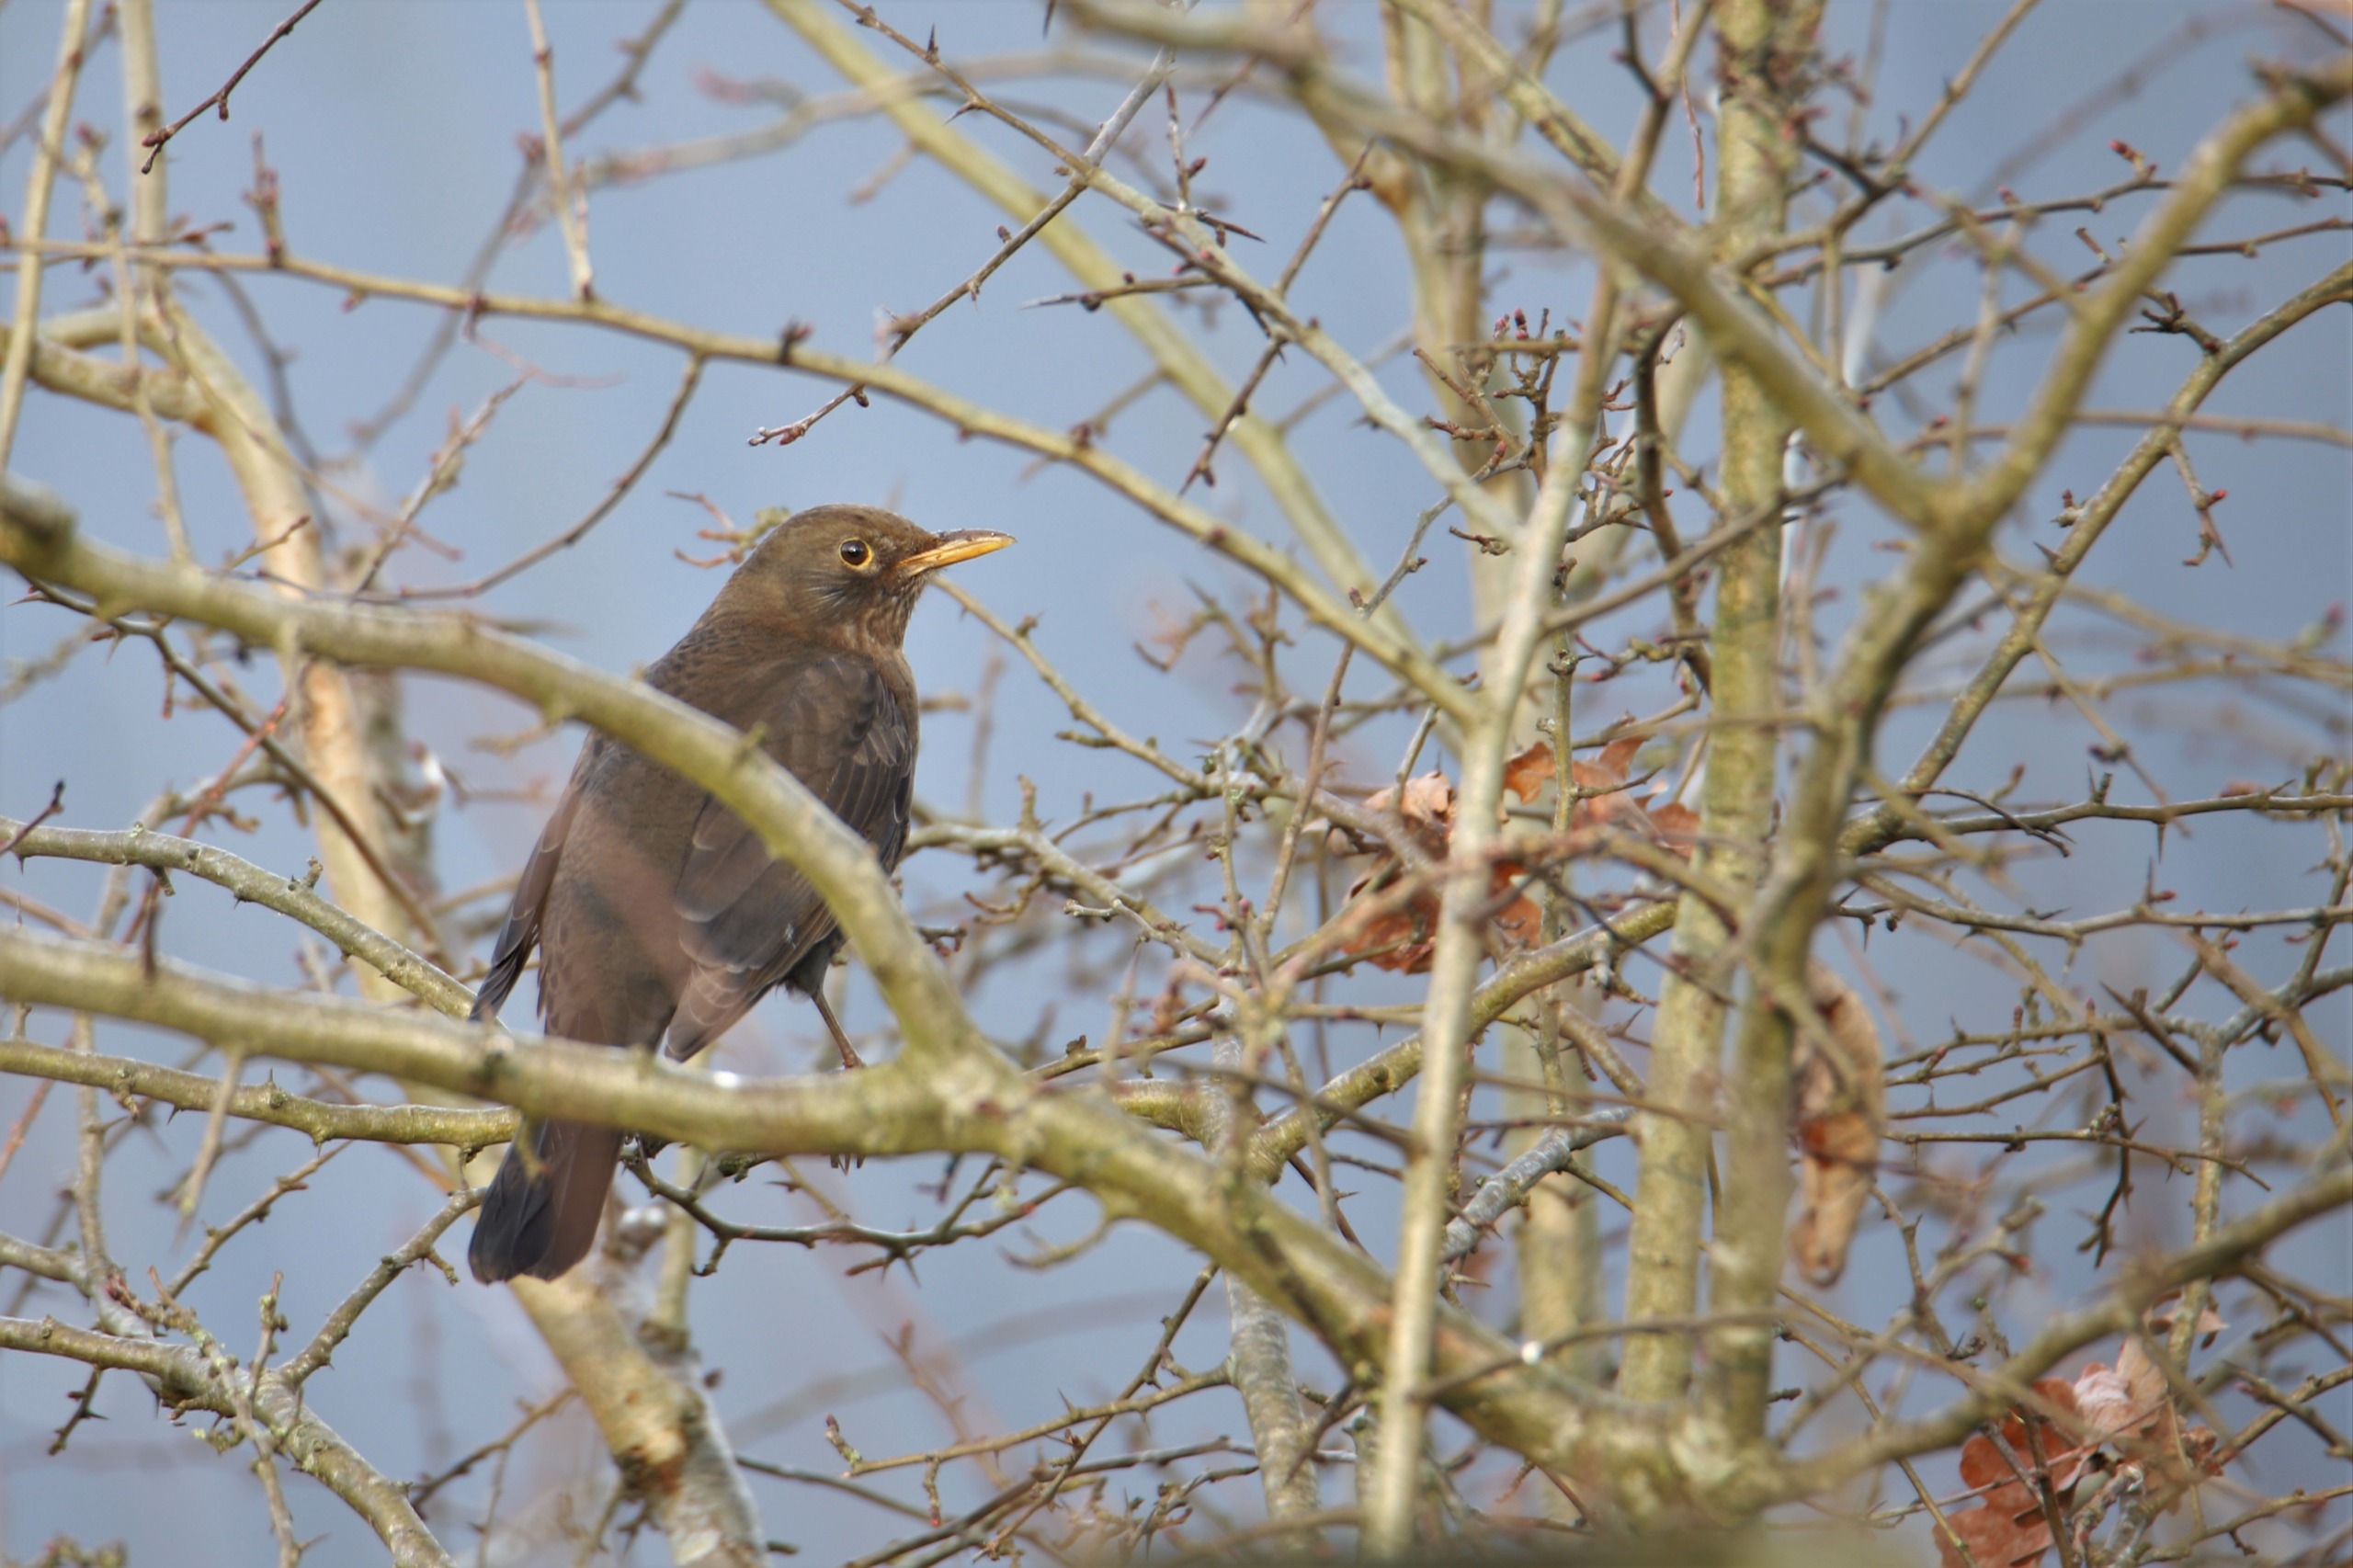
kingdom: Animalia
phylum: Chordata
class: Aves
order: Passeriformes
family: Turdidae
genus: Turdus
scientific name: Turdus merula
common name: Solsort
